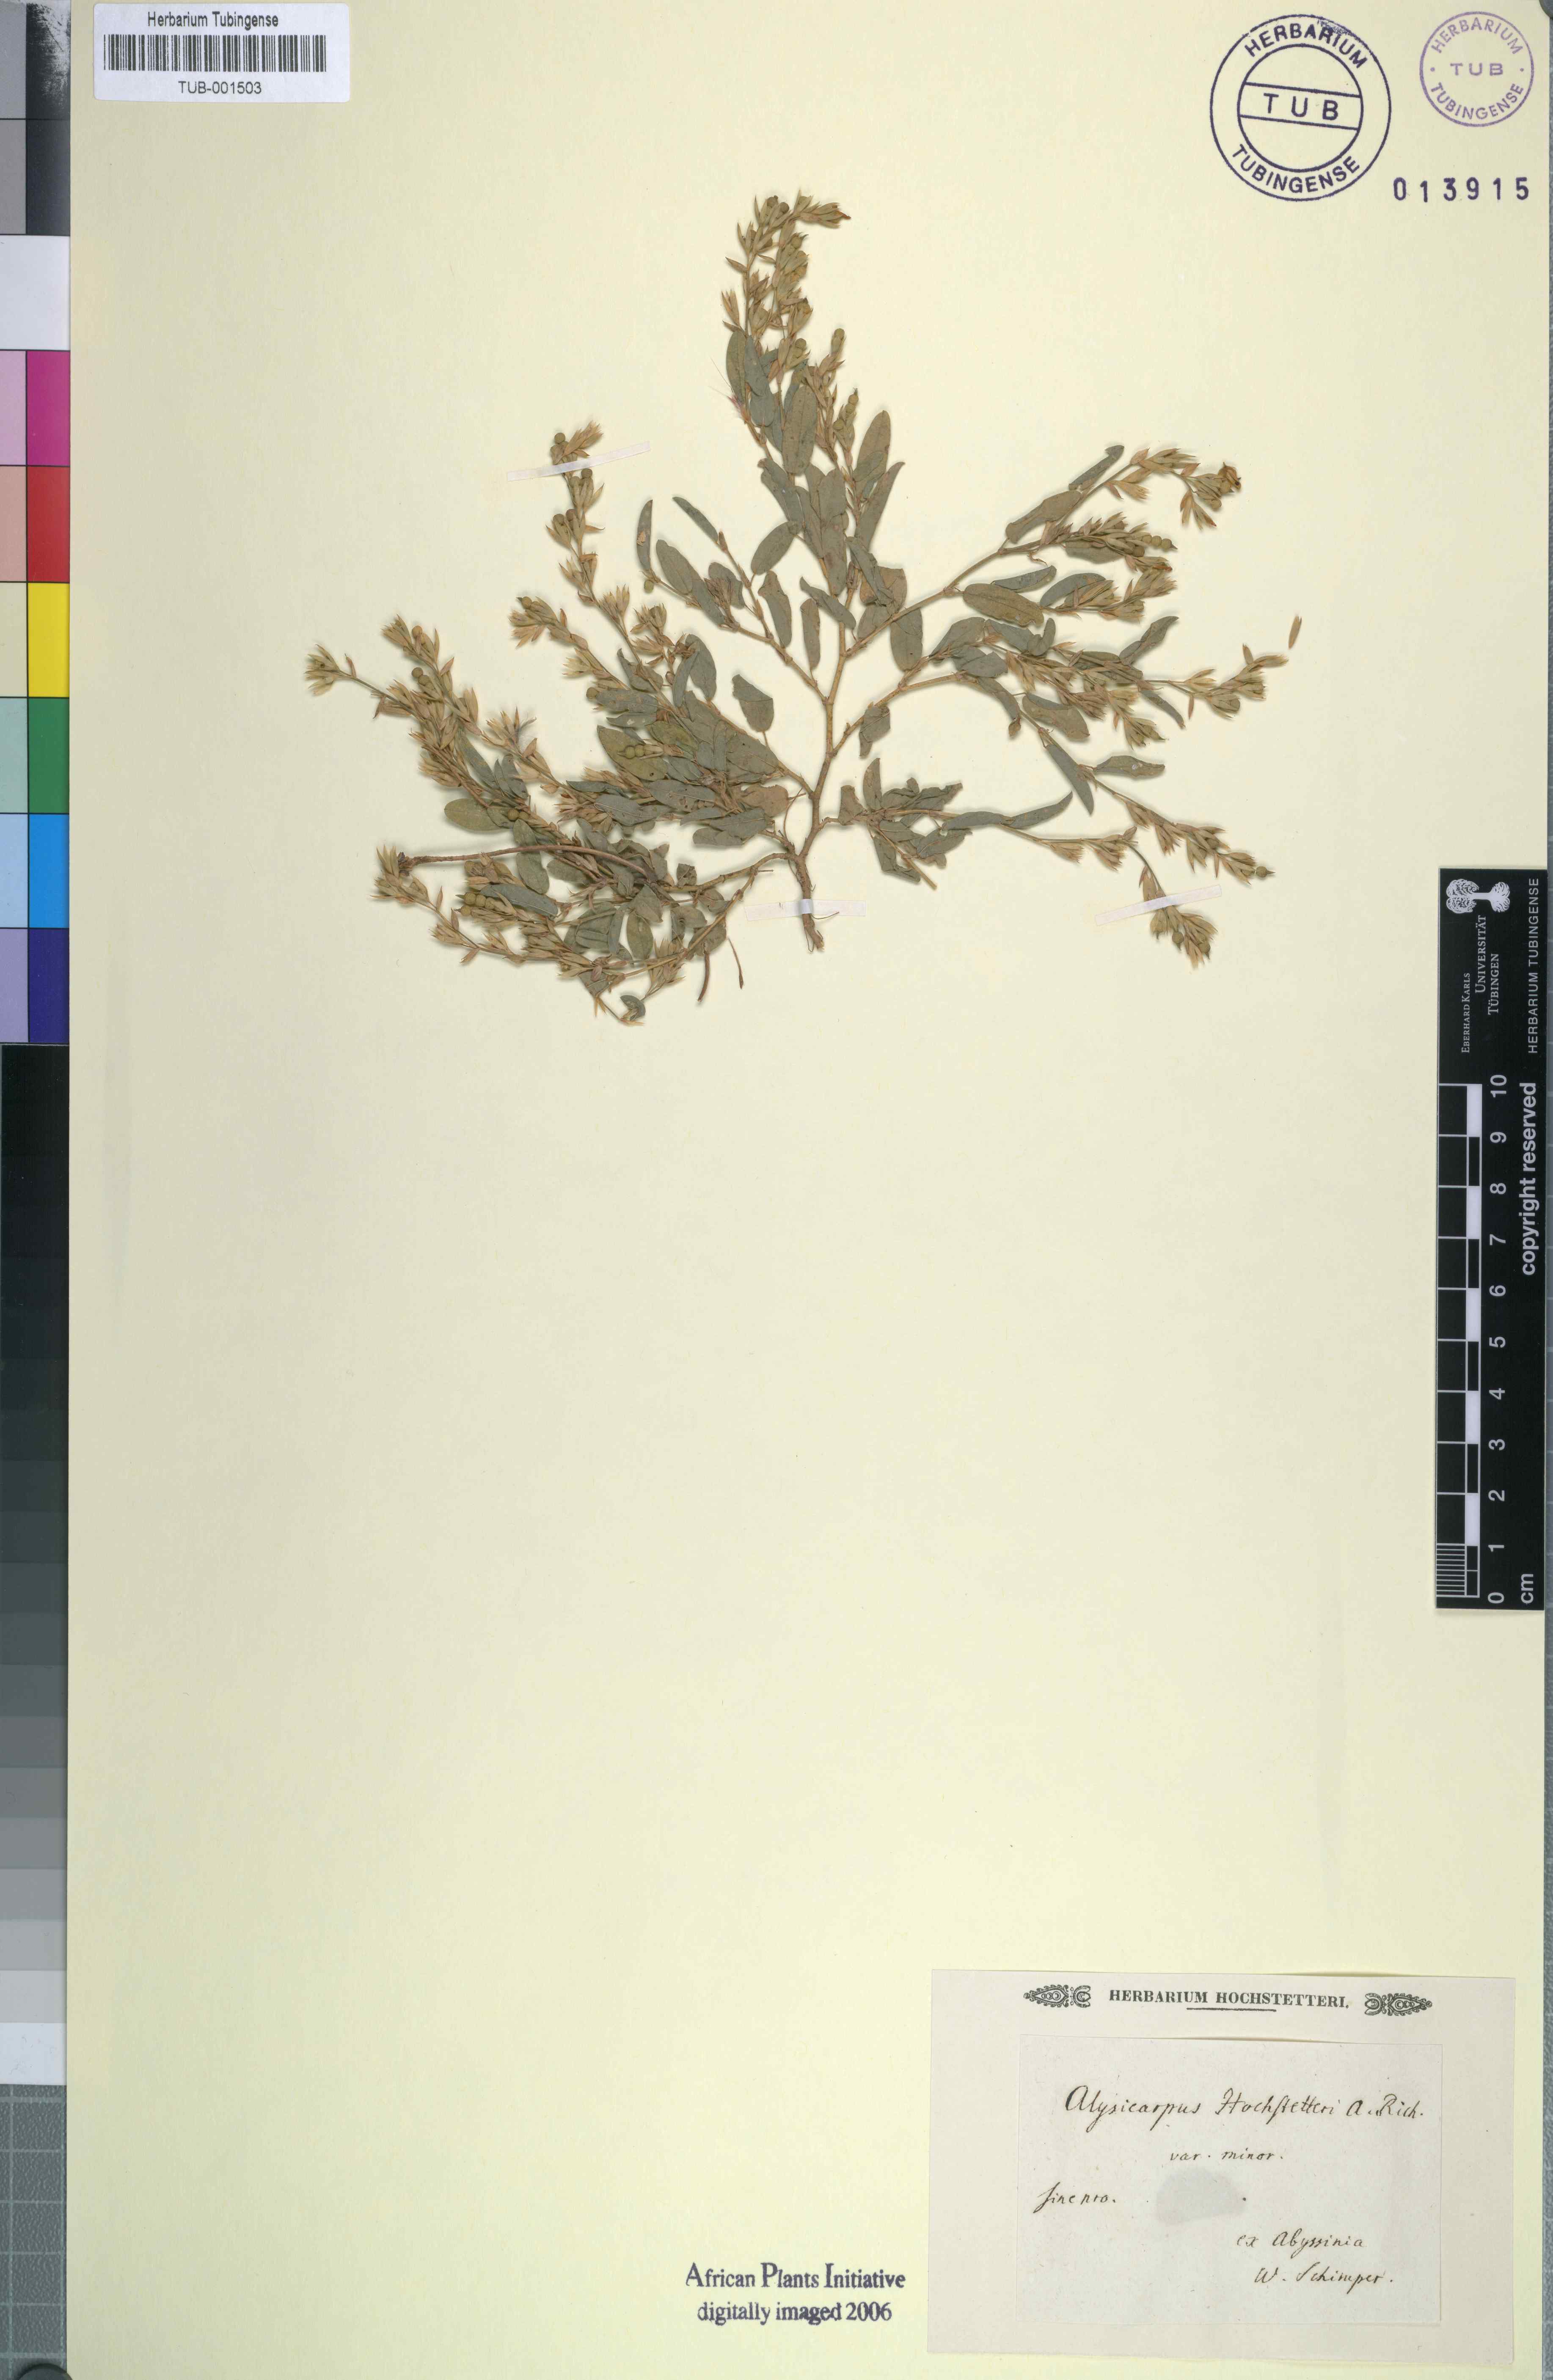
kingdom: Plantae
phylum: Tracheophyta
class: Magnoliopsida
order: Fabales
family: Fabaceae
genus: Alysicarpus
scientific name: Alysicarpus rugosus
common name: Red moneywort
